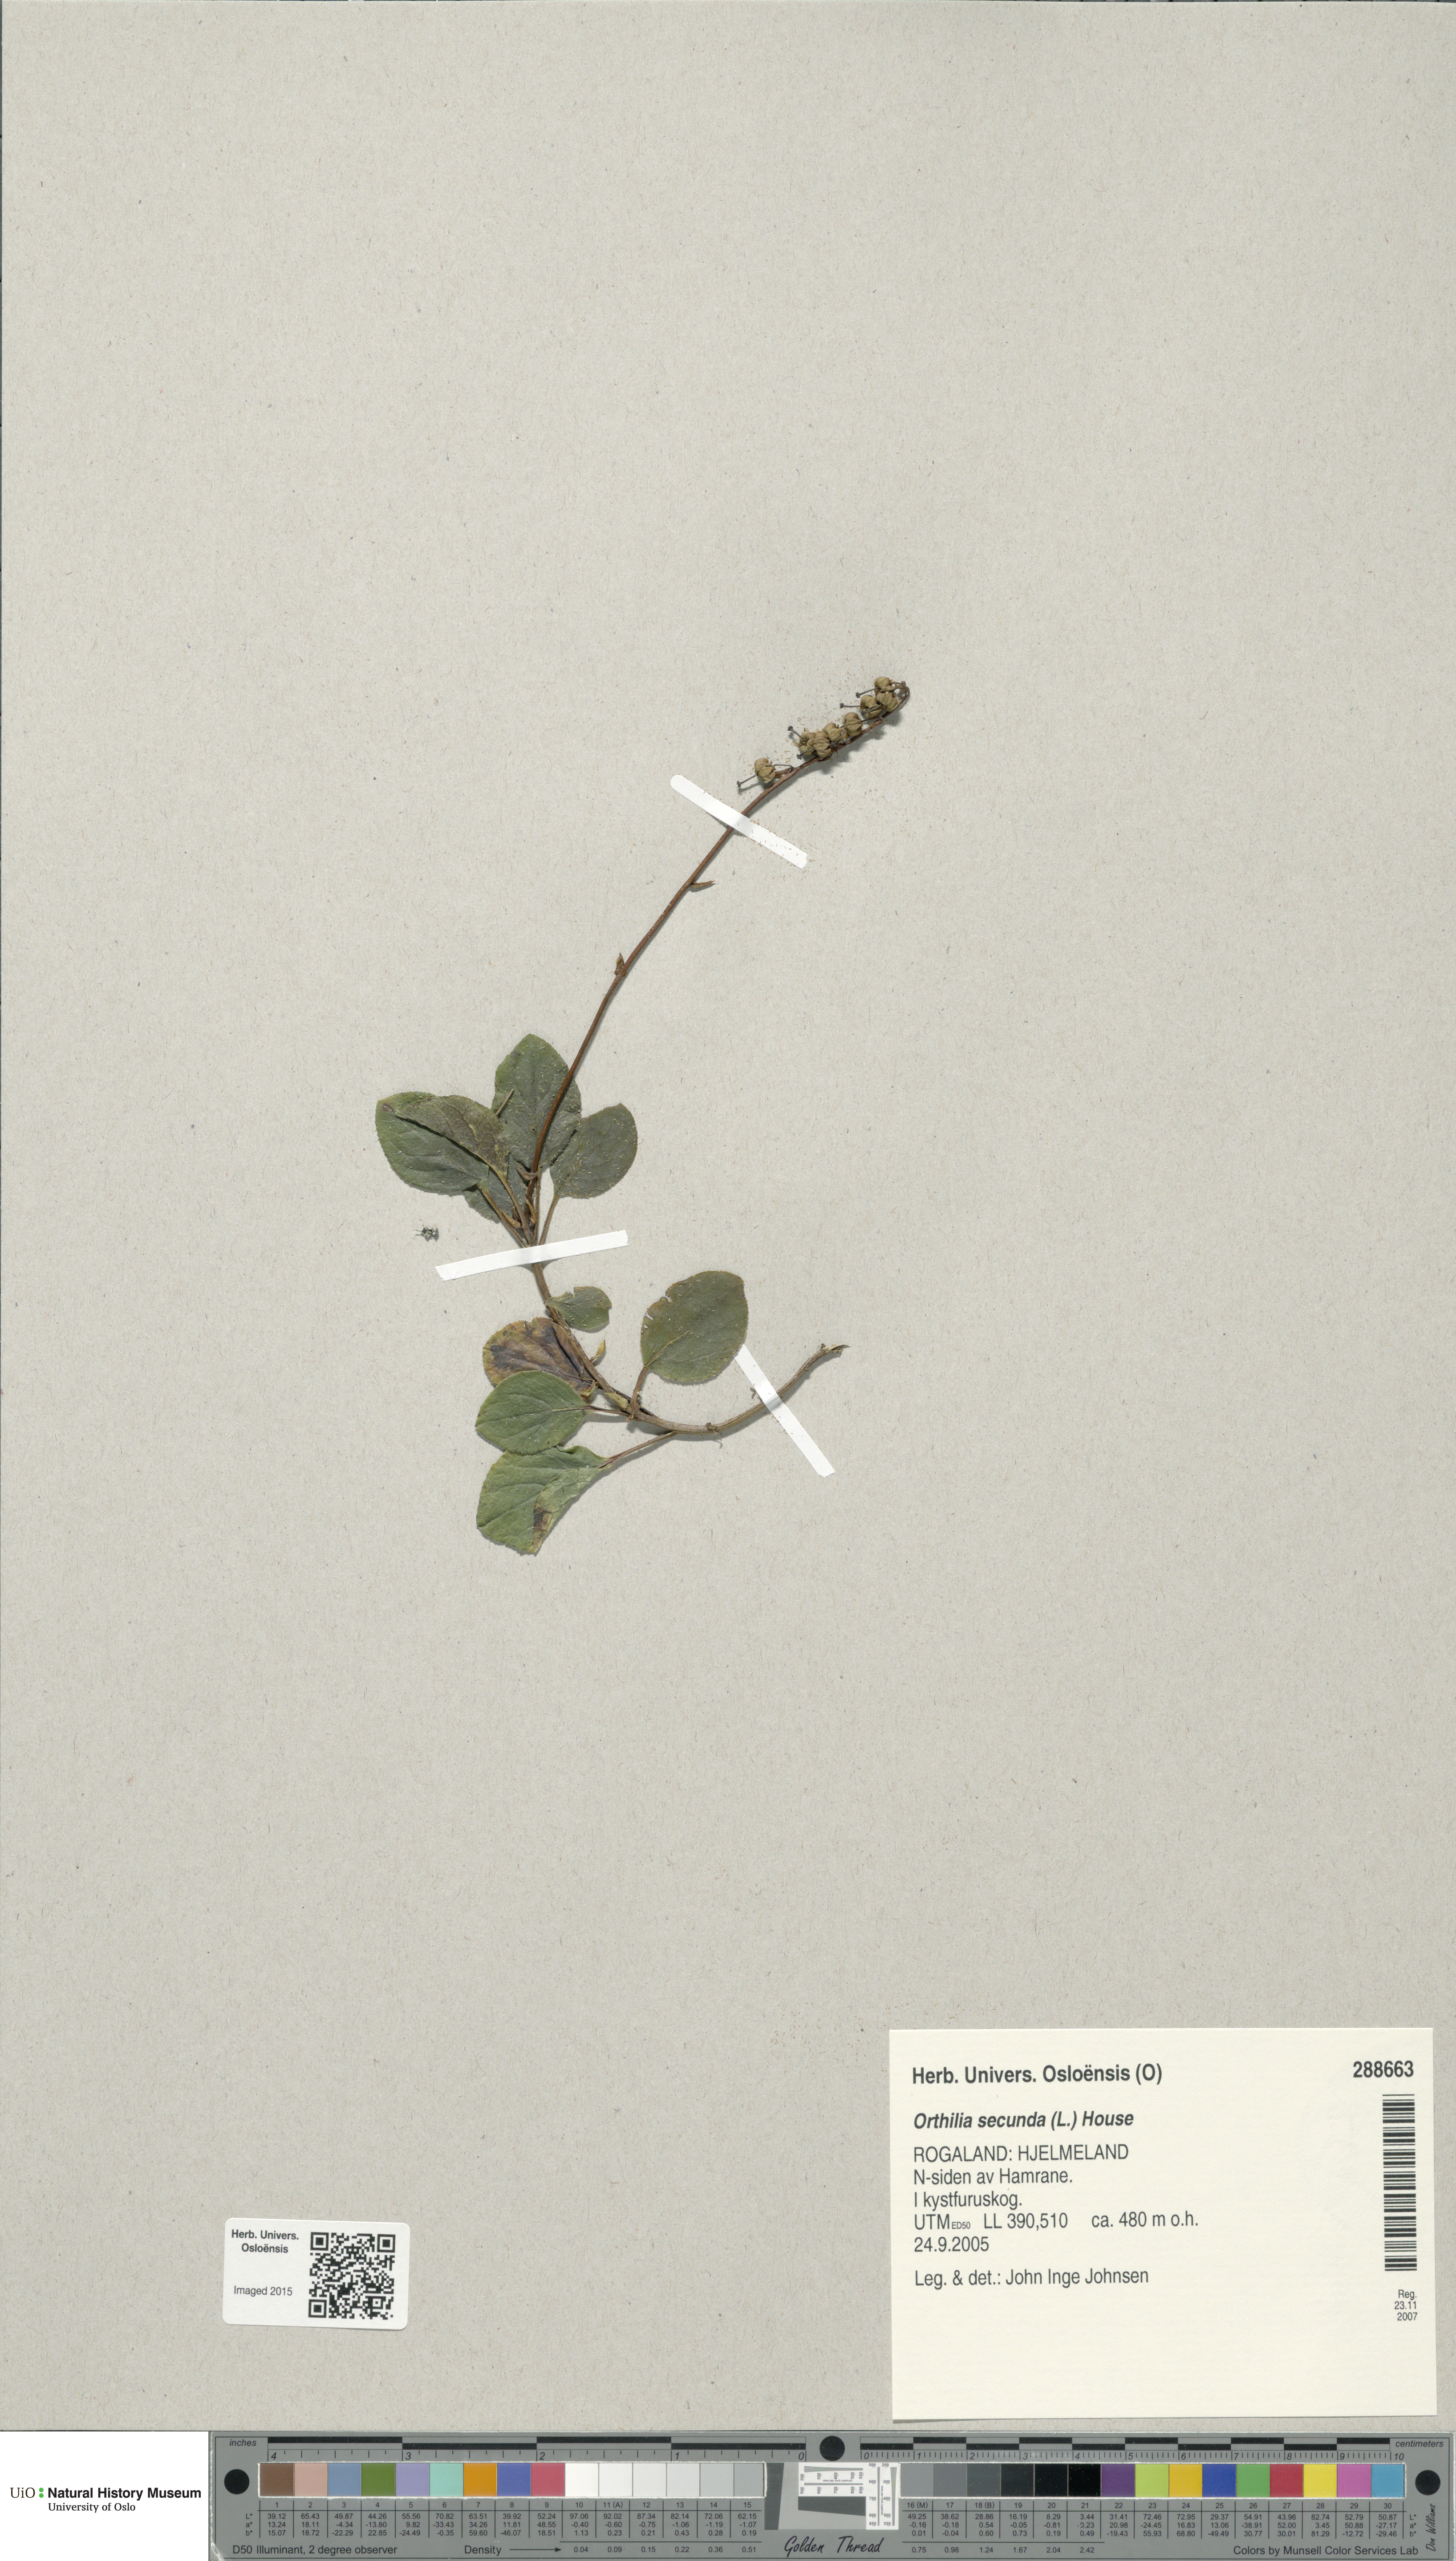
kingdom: Plantae
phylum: Tracheophyta
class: Magnoliopsida
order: Ericales
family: Ericaceae
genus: Orthilia
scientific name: Orthilia secunda
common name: One-sided orthilia
